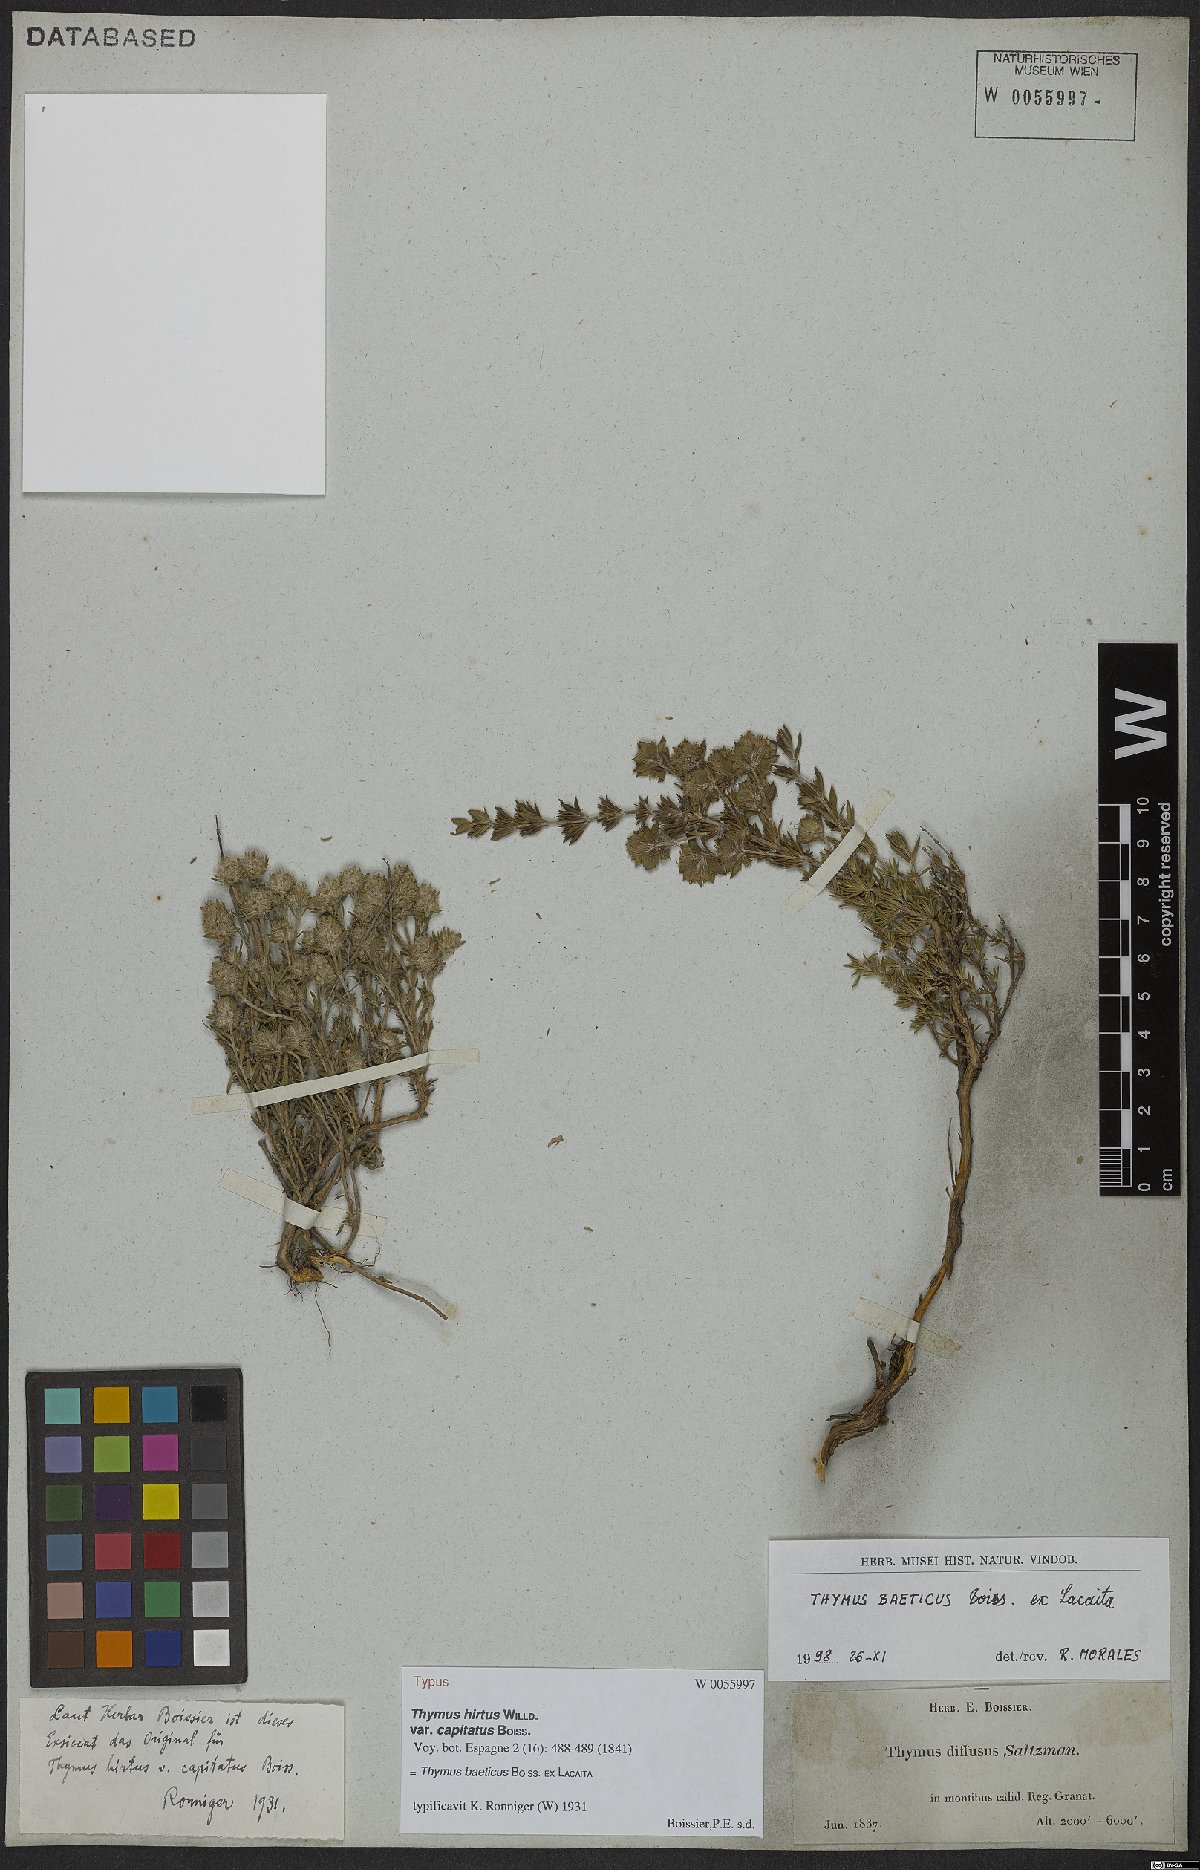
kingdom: Plantae
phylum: Tracheophyta
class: Magnoliopsida
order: Lamiales
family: Lamiaceae
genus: Thymus
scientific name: Thymus baeticus
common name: Spanish lemon thyme
